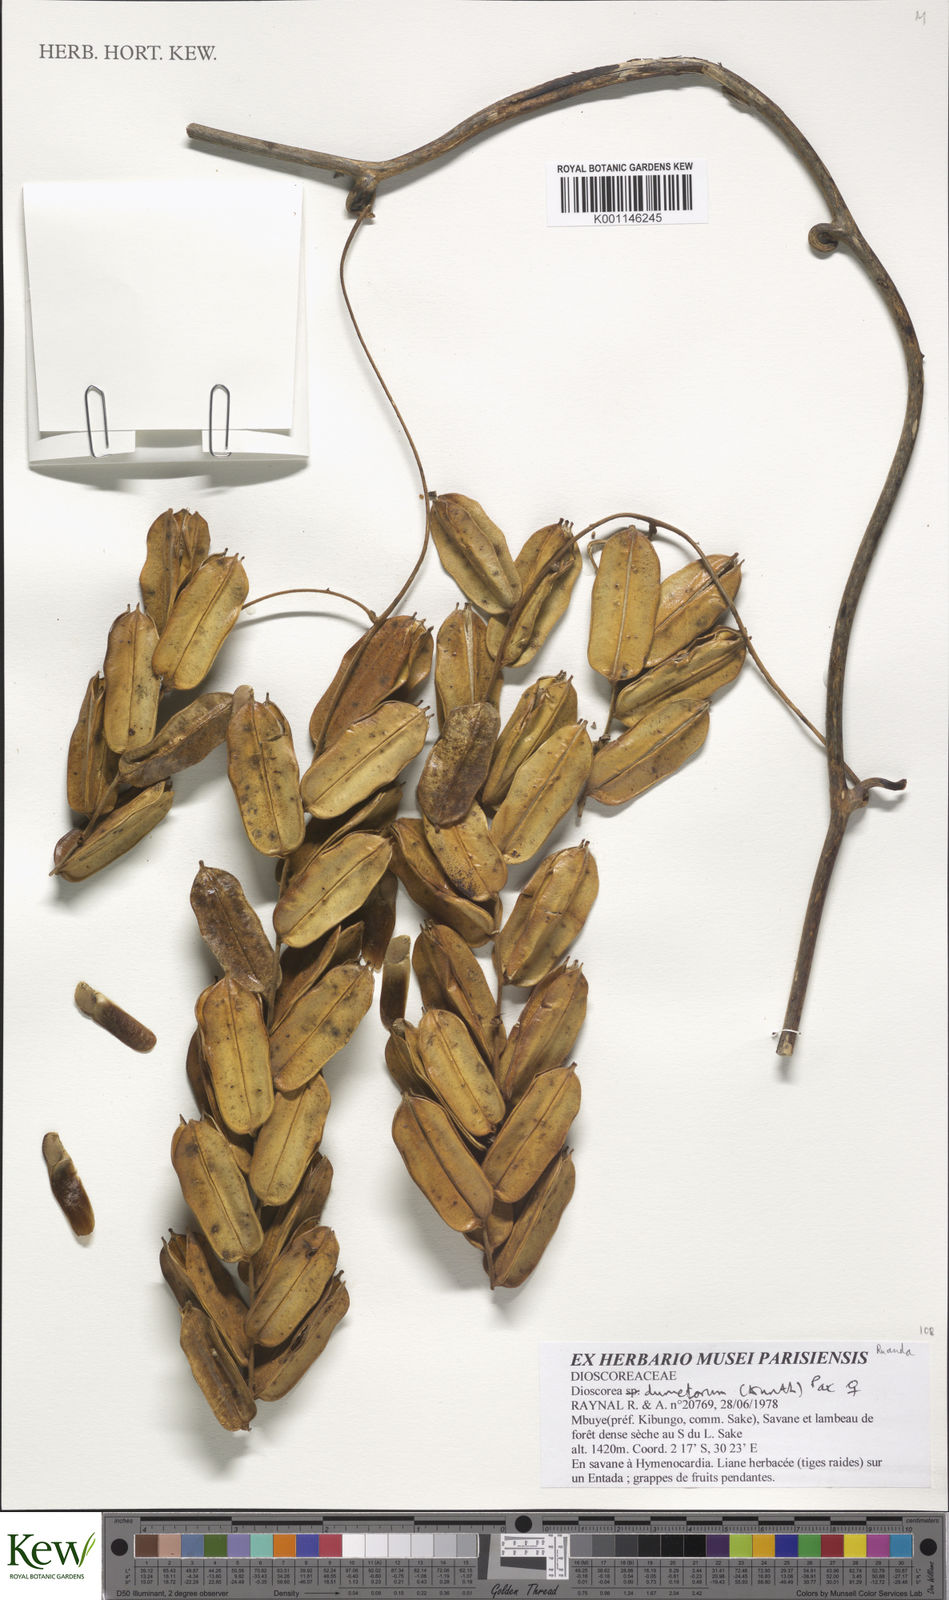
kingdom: Plantae
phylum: Tracheophyta
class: Liliopsida
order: Dioscoreales
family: Dioscoreaceae
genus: Dioscorea
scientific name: Dioscorea dumetorum
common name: African bitter yam
